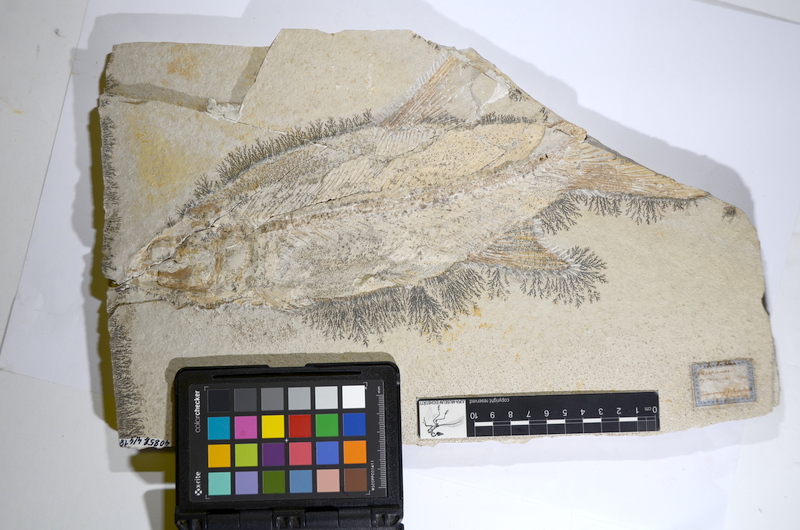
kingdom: Animalia
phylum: Chordata
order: Amiiformes
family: Ionoscopidae
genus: Ionoscopus
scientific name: Ionoscopus cyprinoides
